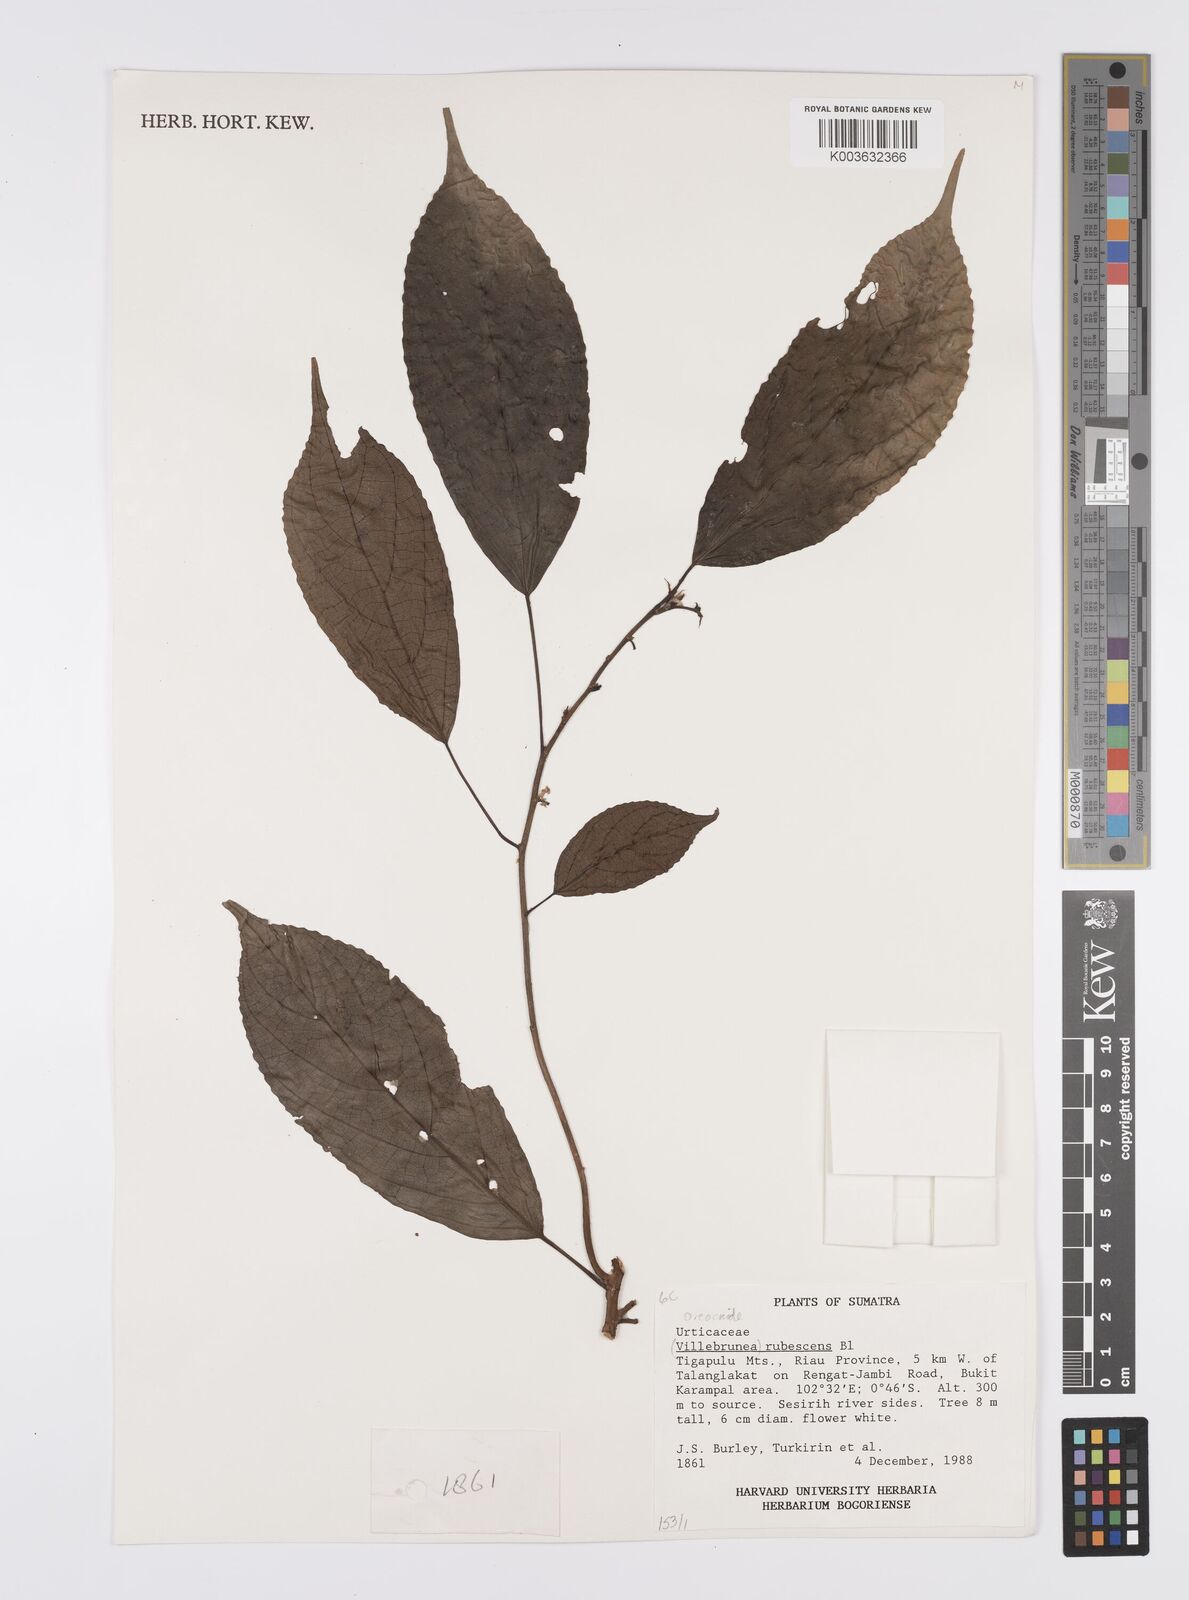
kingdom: Plantae
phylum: Tracheophyta
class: Magnoliopsida
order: Rosales
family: Urticaceae
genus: Oreocnide
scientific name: Oreocnide rubescens
